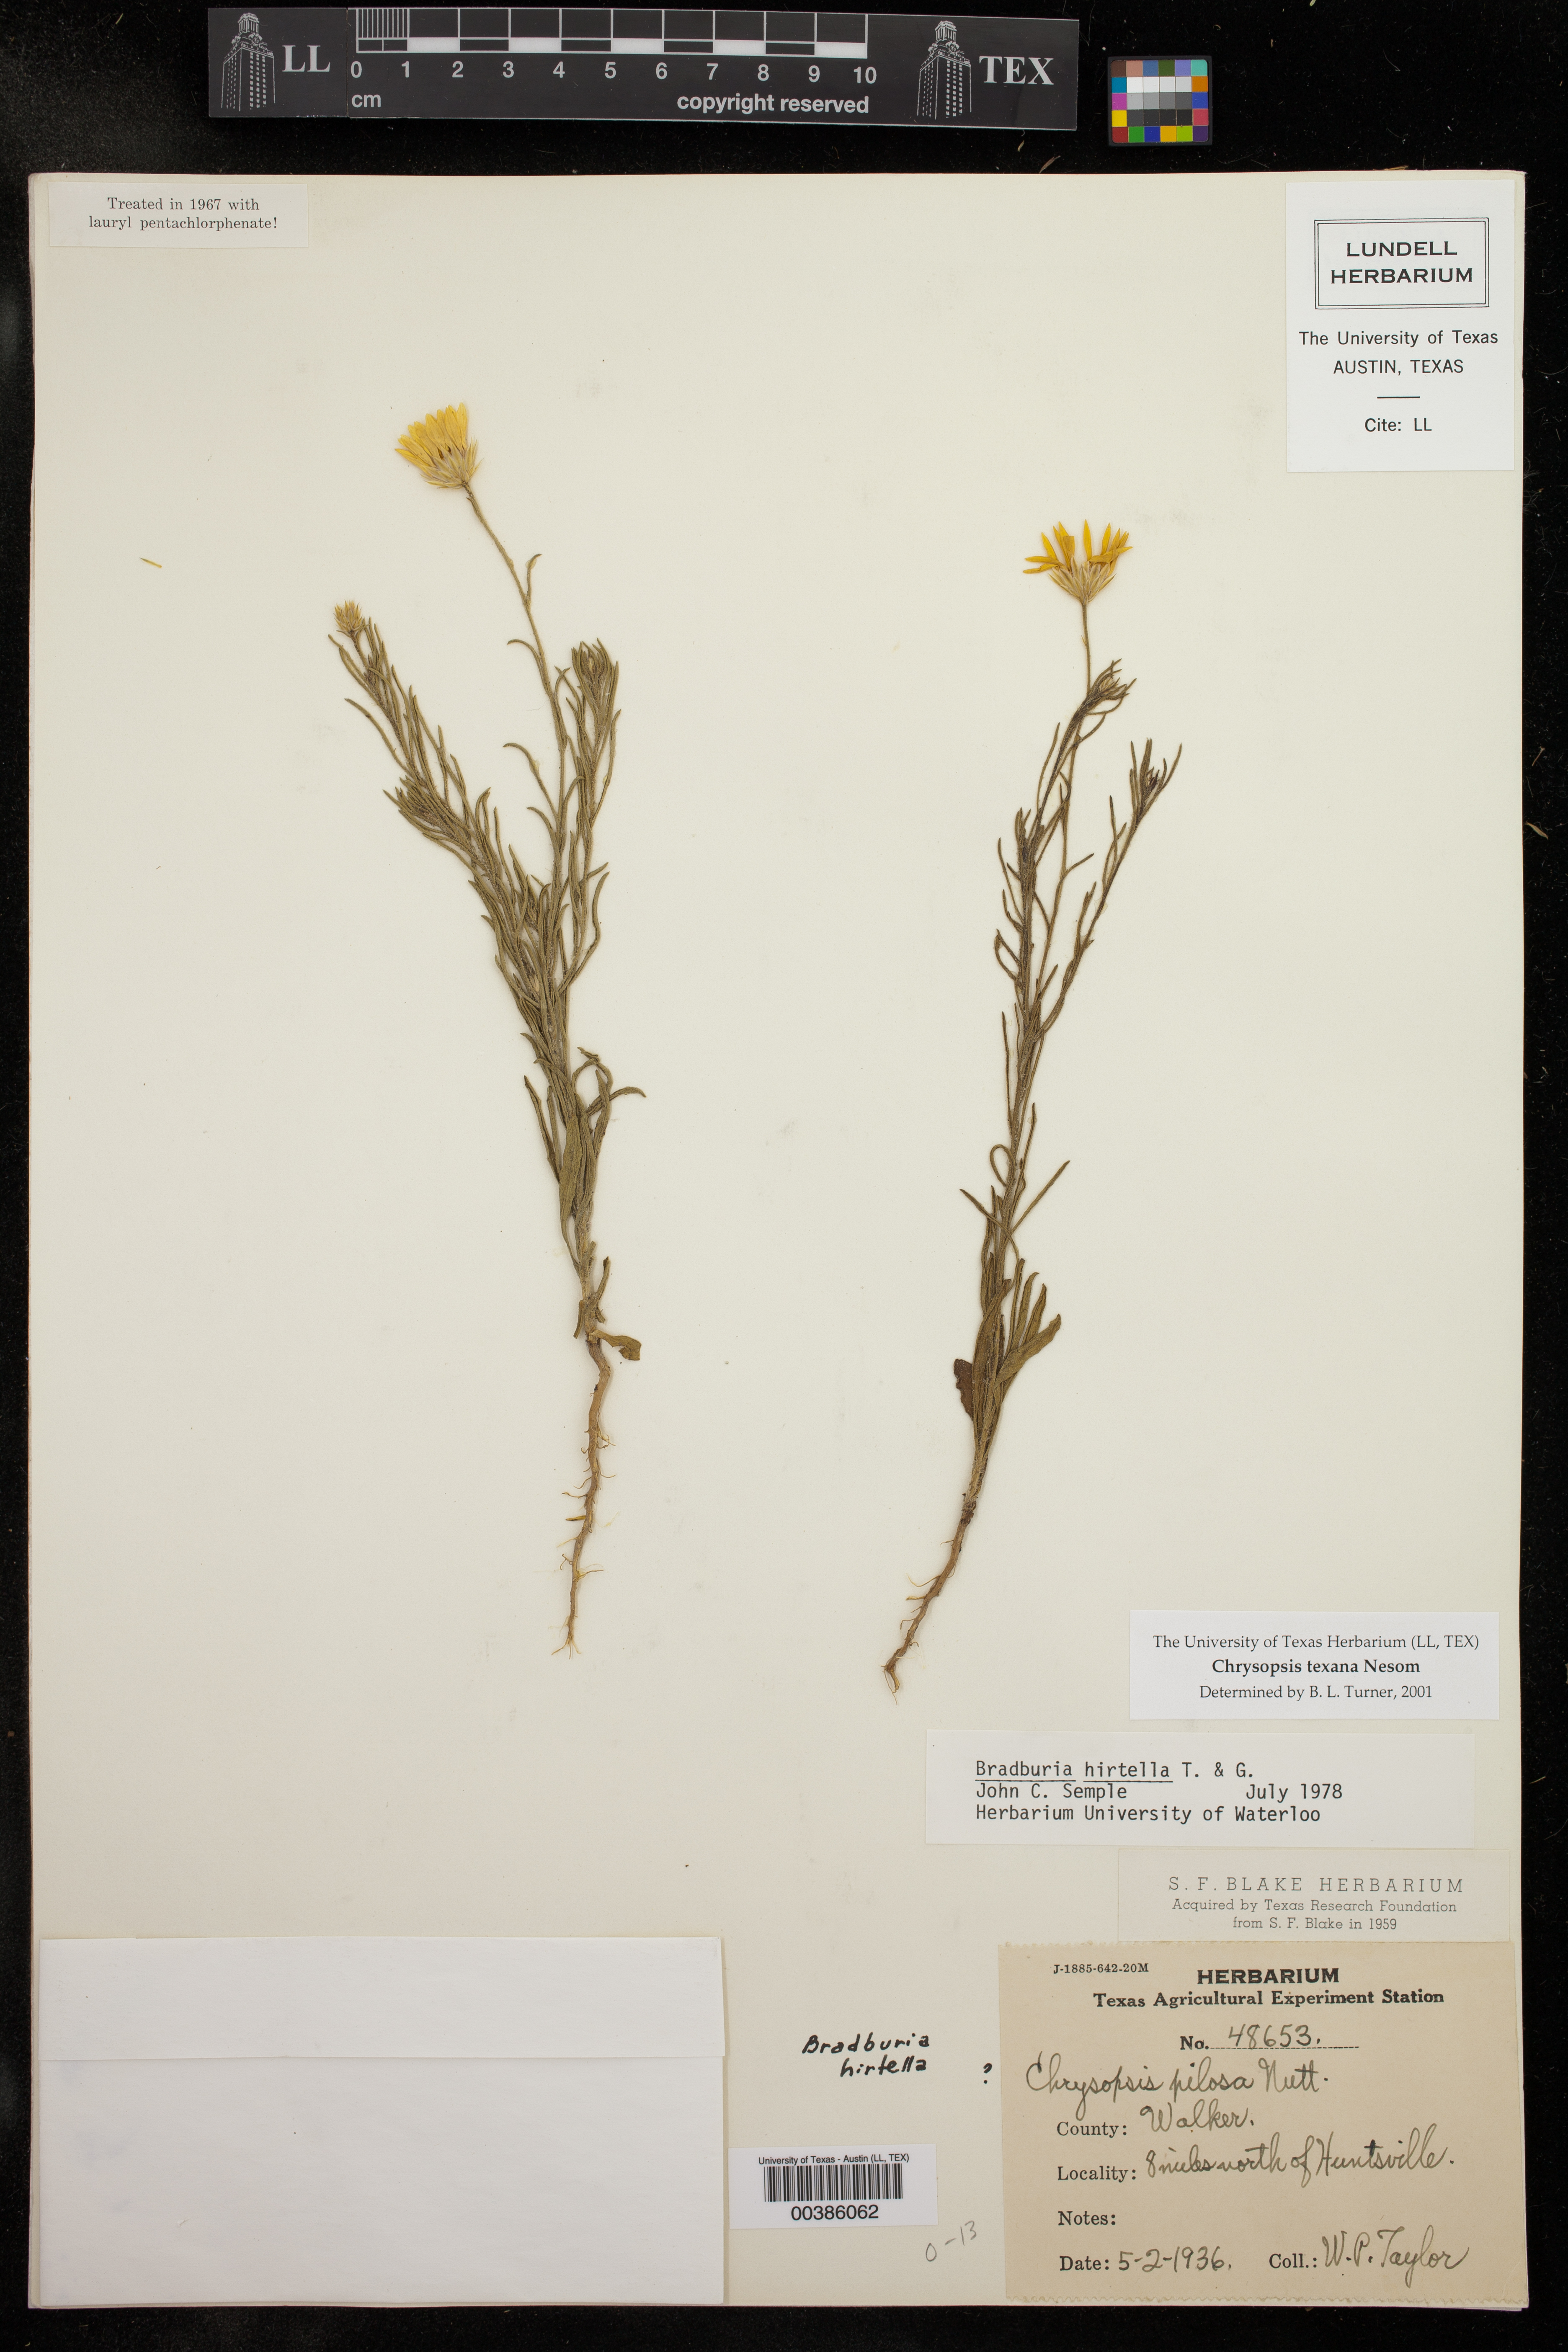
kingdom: Plantae
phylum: Tracheophyta
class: Magnoliopsida
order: Asterales
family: Asteraceae
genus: Bradburia
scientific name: Bradburia hirtella
